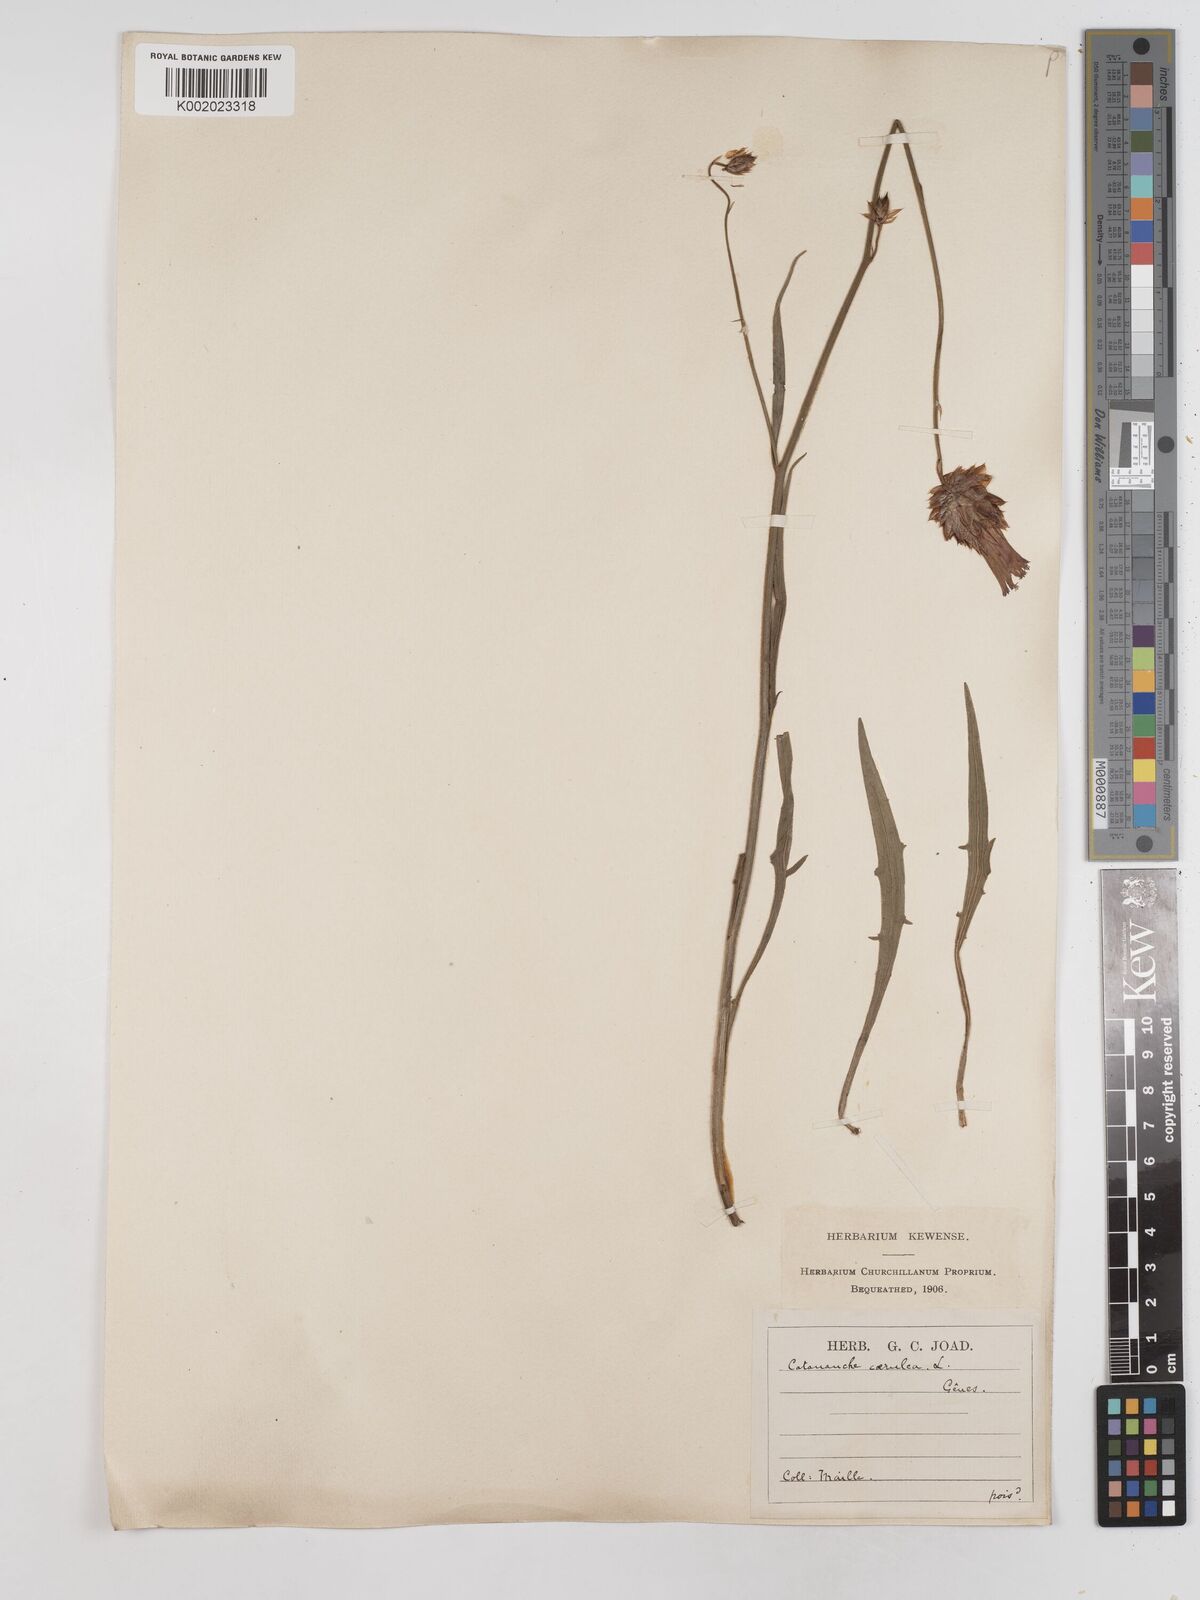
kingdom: Plantae
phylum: Tracheophyta
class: Magnoliopsida
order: Asterales
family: Asteraceae
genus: Catananche
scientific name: Catananche caerulea
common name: Blue cupidone
